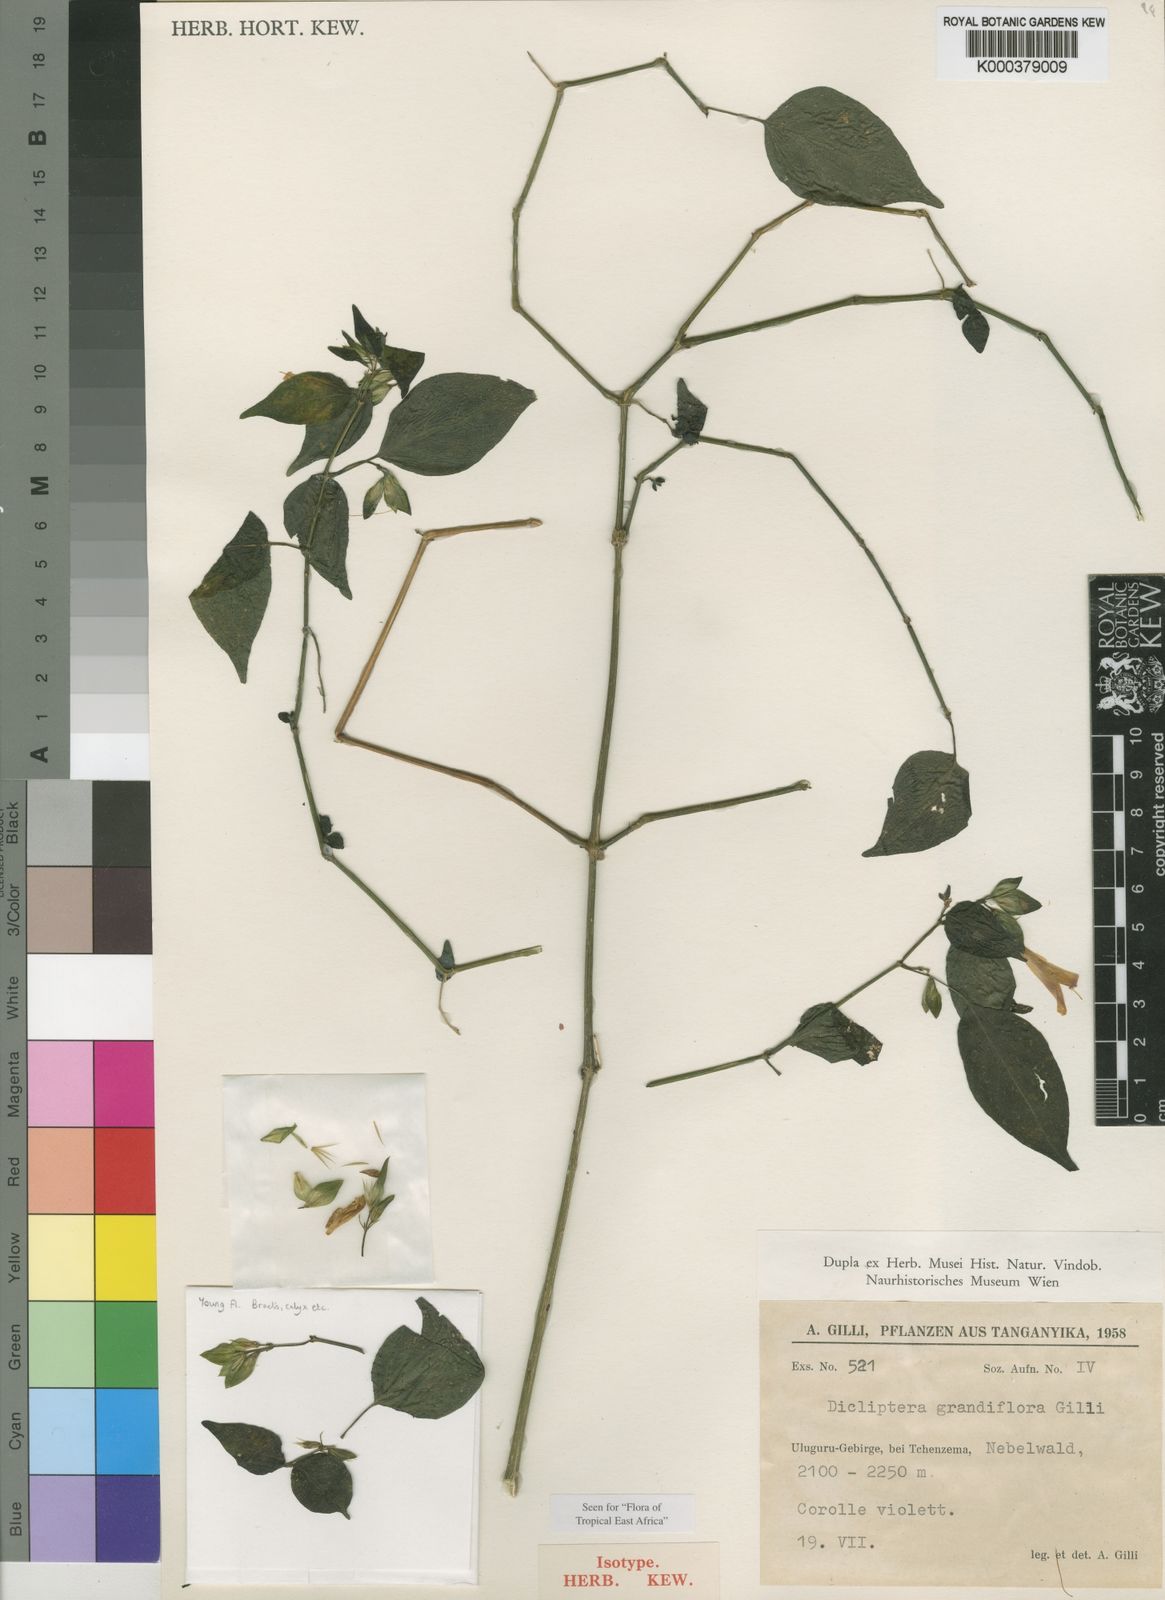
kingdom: Plantae
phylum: Tracheophyta
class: Magnoliopsida
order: Lamiales
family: Acanthaceae
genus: Dicliptera
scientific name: Dicliptera grandiflora
